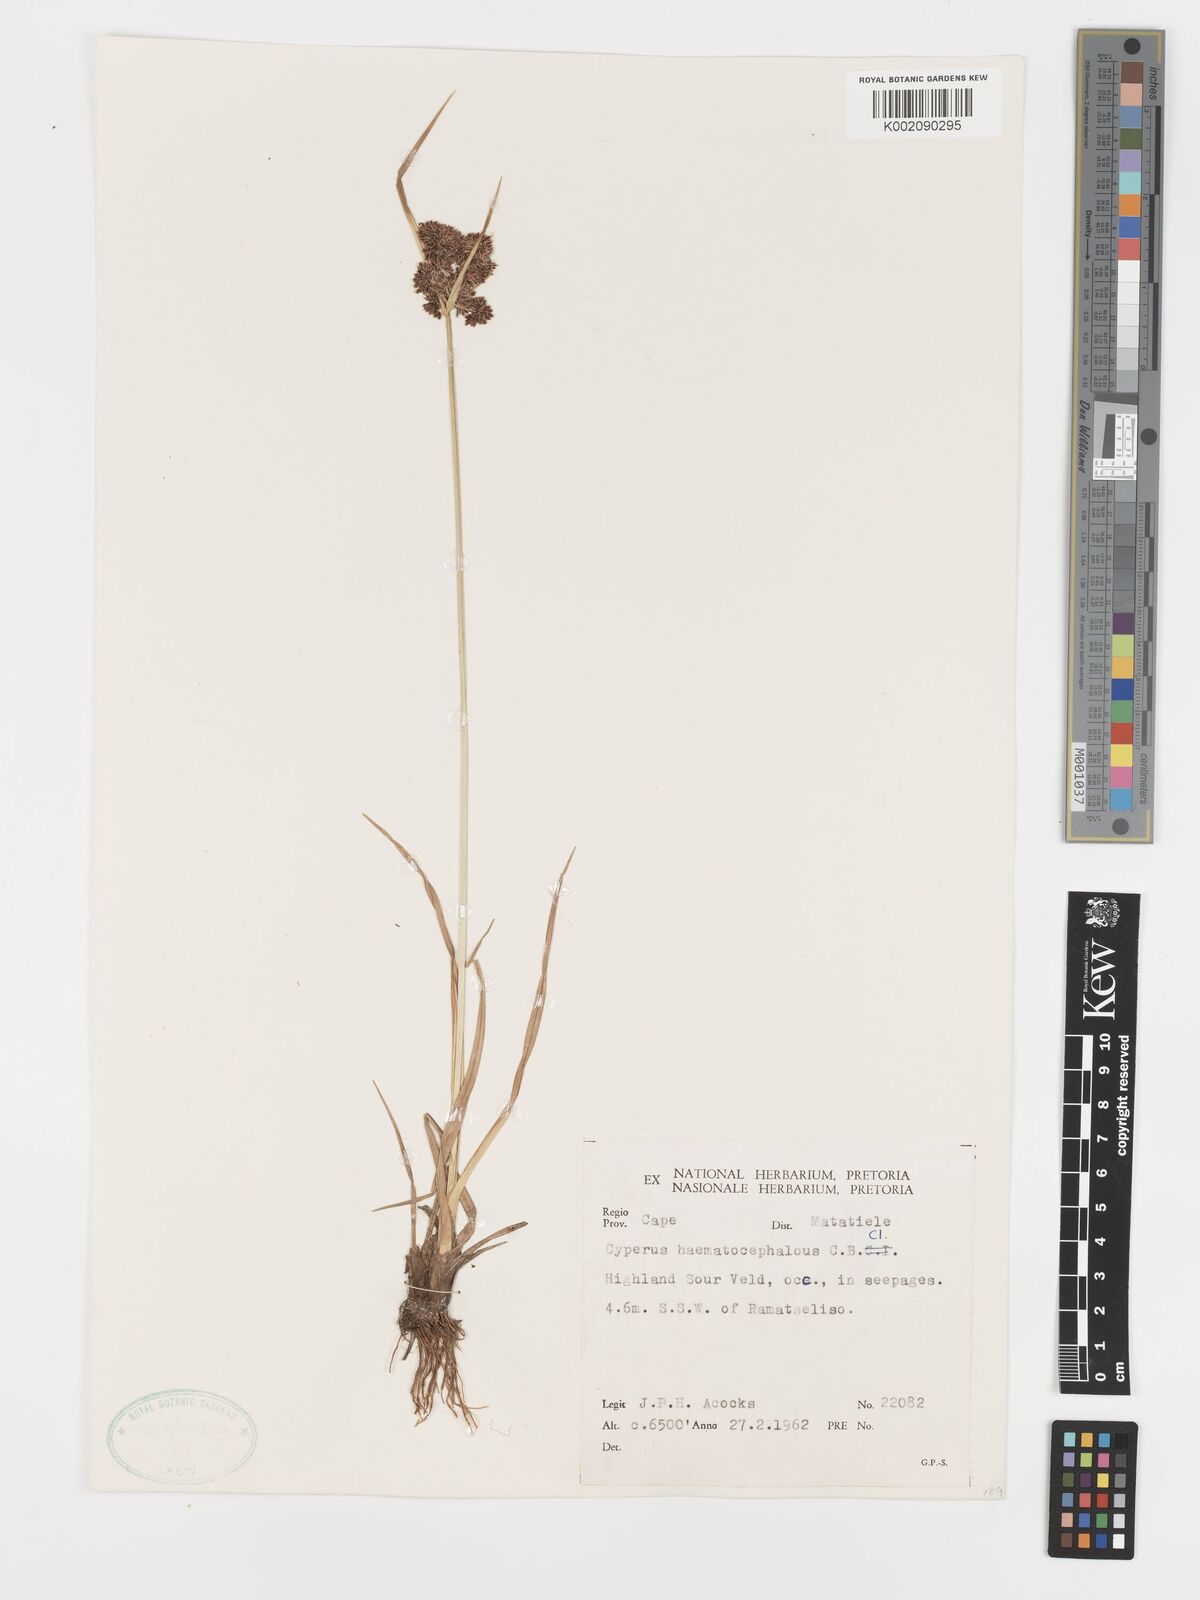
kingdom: Plantae
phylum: Tracheophyta
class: Liliopsida
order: Poales
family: Cyperaceae
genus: Cyperus
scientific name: Cyperus haematocephalus
